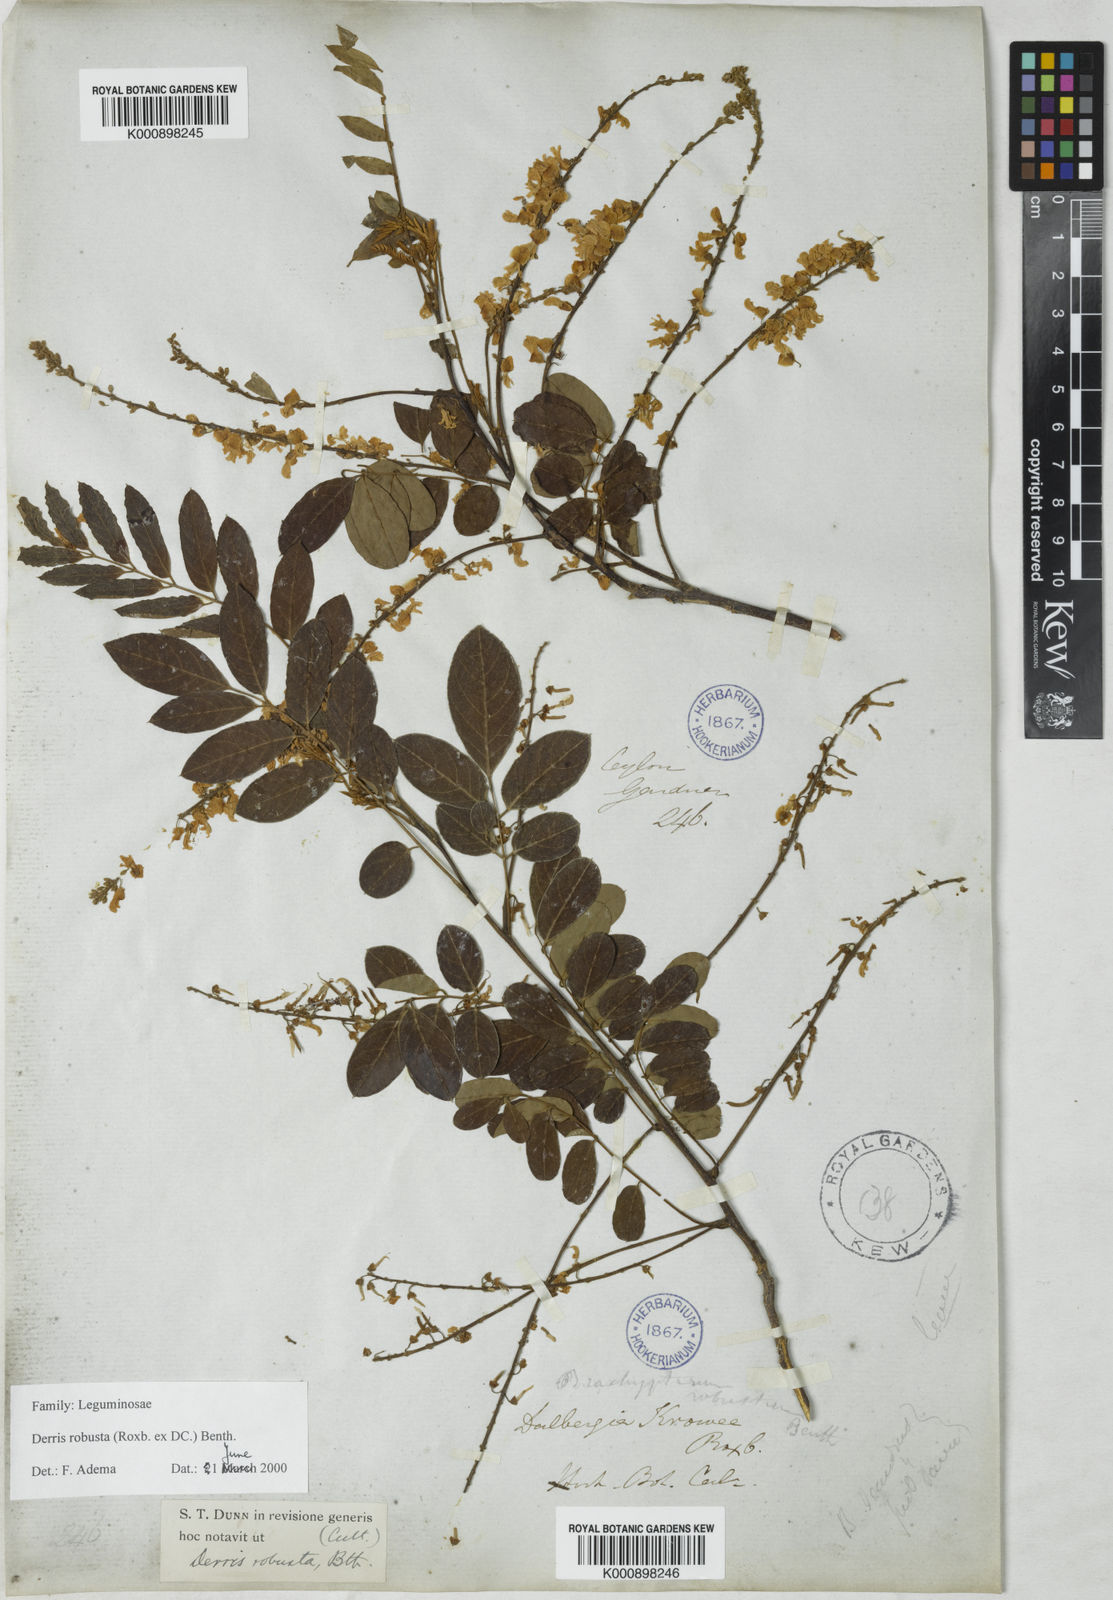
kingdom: Plantae
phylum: Tracheophyta
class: Magnoliopsida
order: Fabales
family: Fabaceae
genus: Brachypterum
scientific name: Brachypterum robustum
